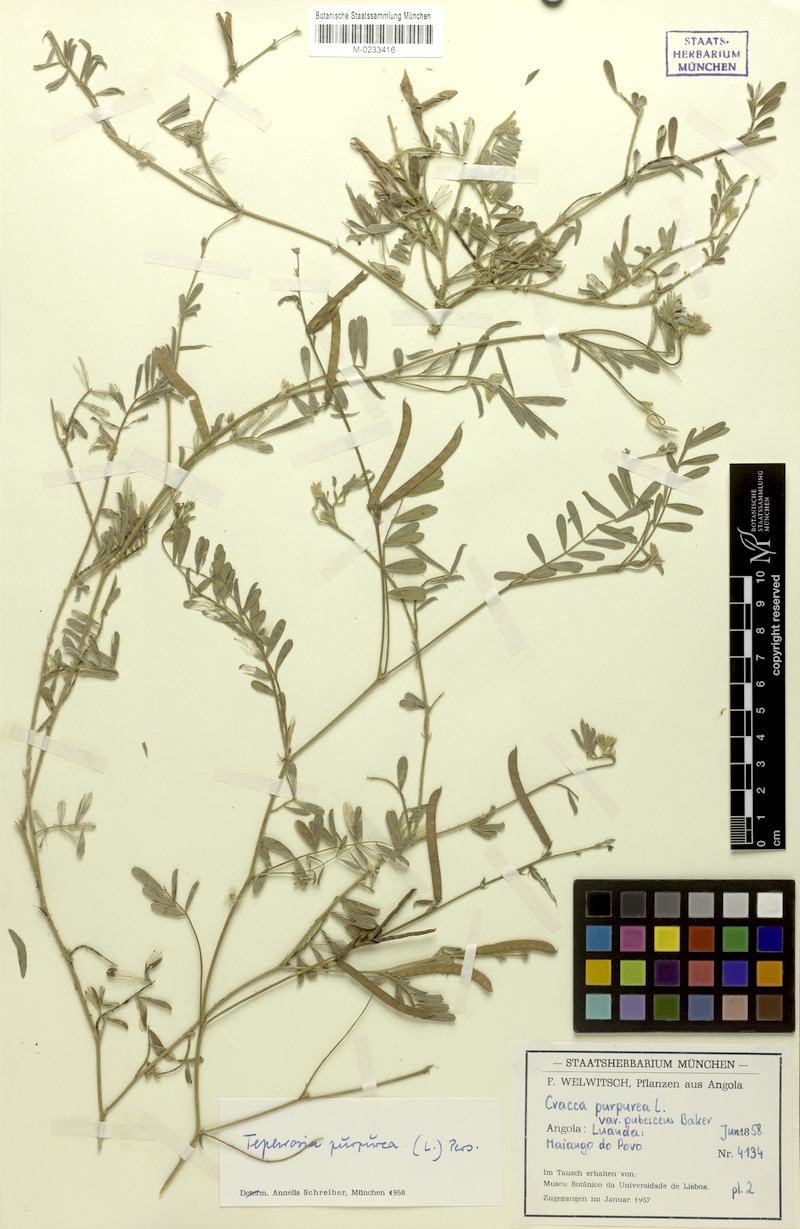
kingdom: Plantae
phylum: Tracheophyta
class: Magnoliopsida
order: Fabales
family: Fabaceae
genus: Tephrosia
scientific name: Tephrosia purpurea
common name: Fishpoison
